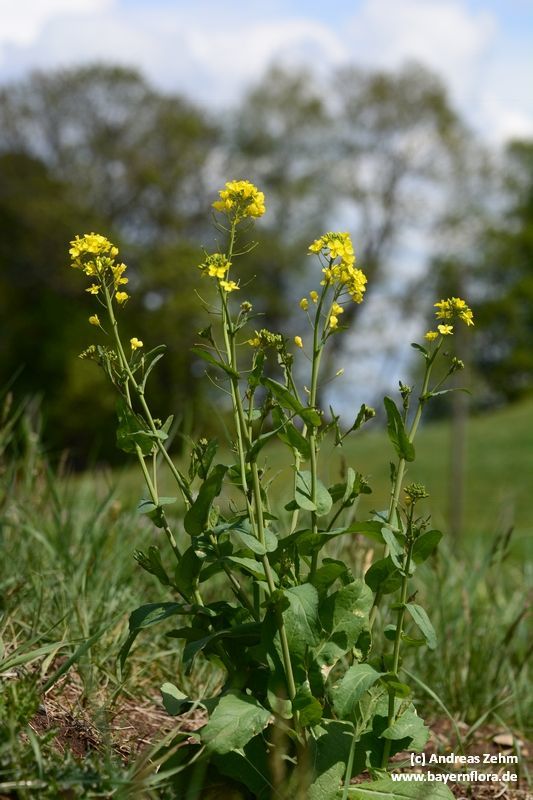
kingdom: Plantae
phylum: Tracheophyta
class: Magnoliopsida
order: Brassicales
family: Brassicaceae
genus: Brassica
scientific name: Brassica napus
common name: Rape
